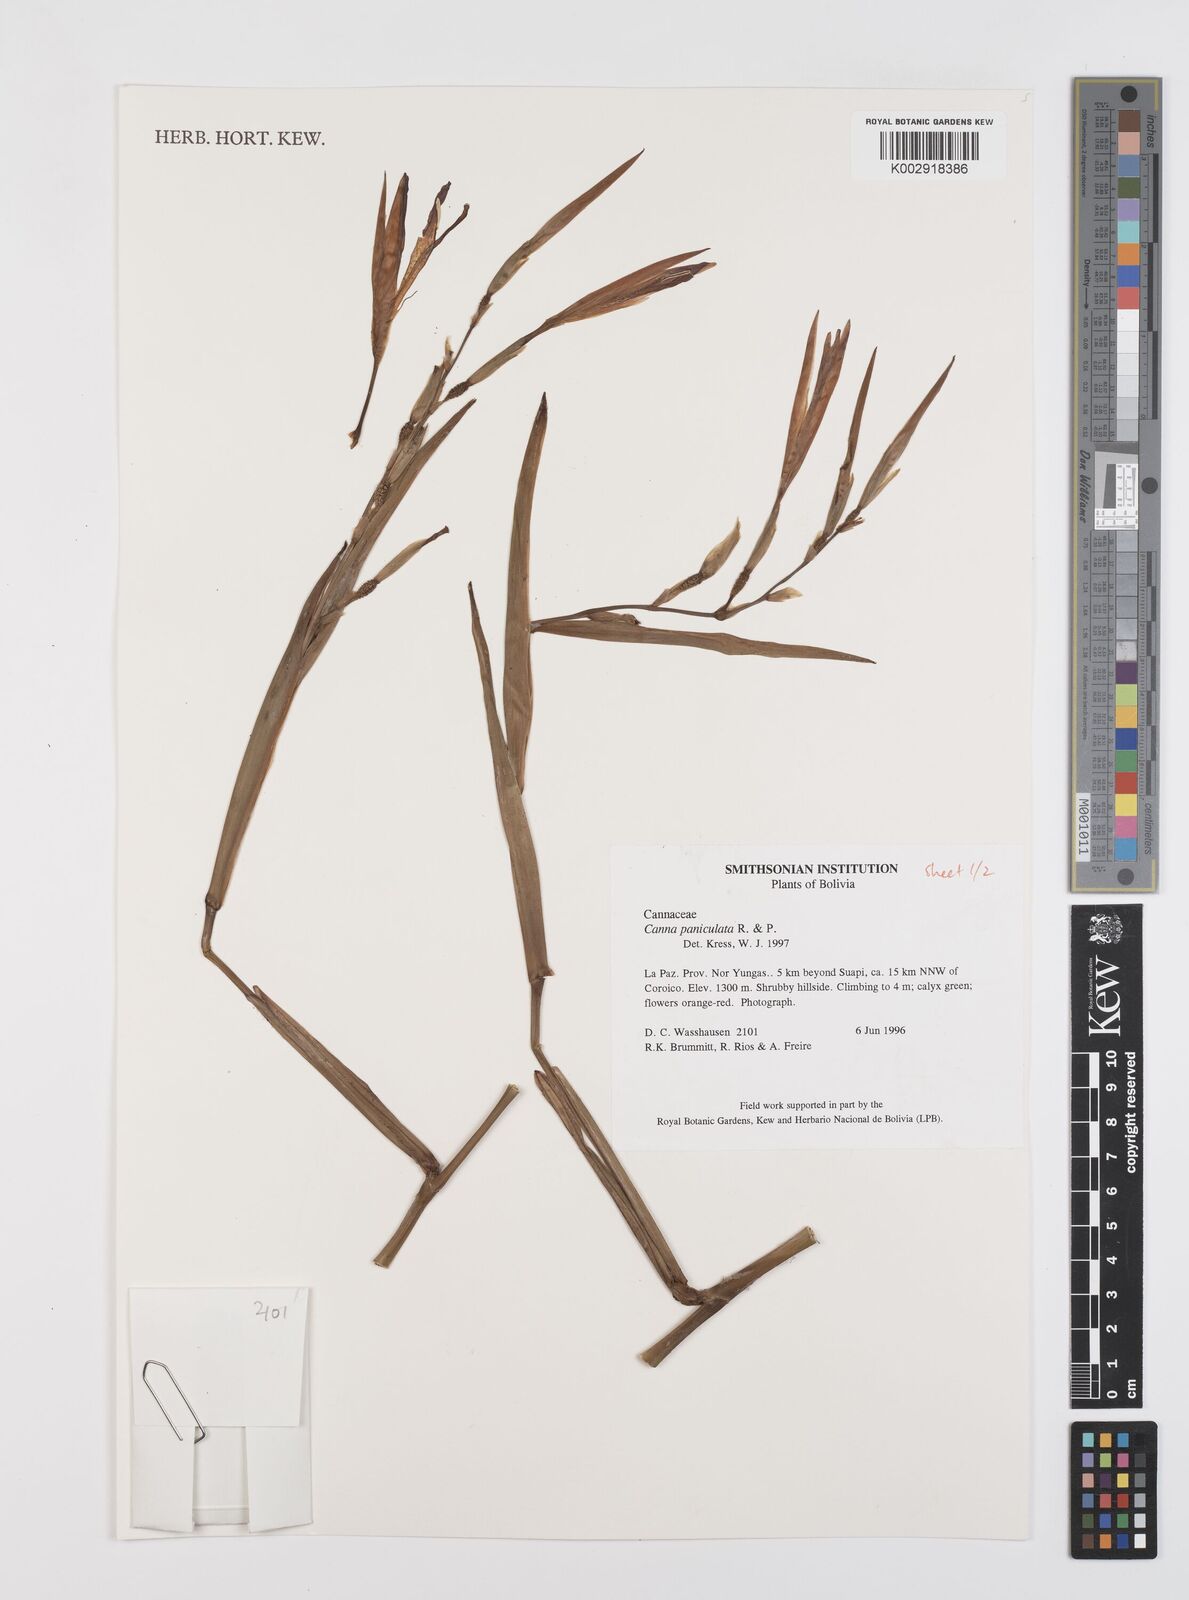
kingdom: Plantae
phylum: Tracheophyta
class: Liliopsida
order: Zingiberales
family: Cannaceae
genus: Canna
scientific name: Canna paniculata
